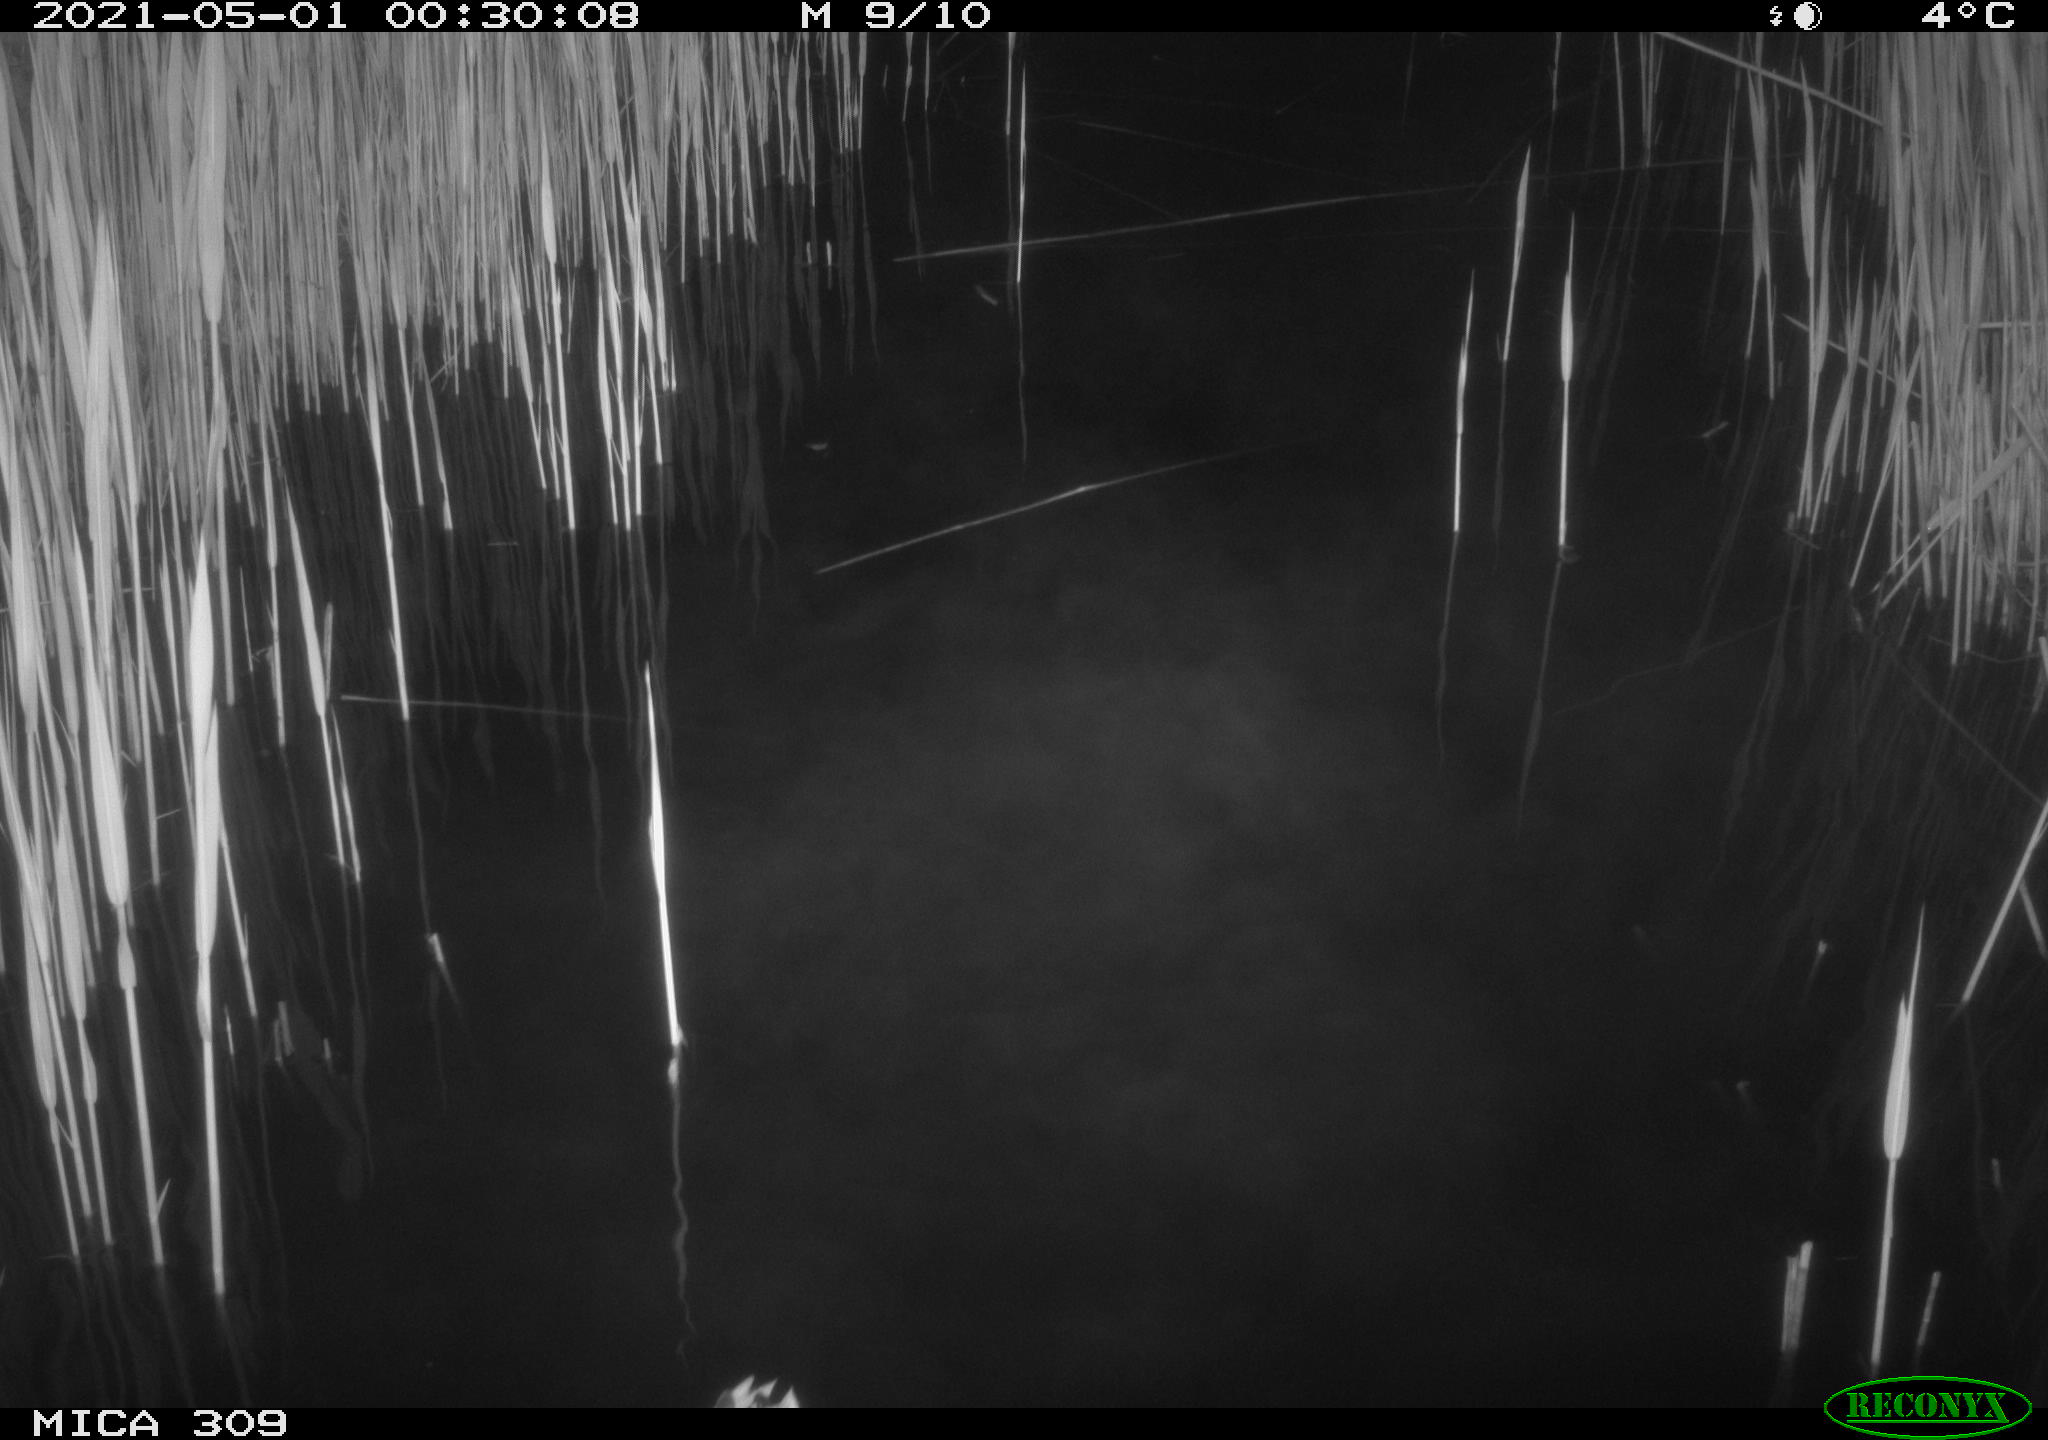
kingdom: Animalia
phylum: Chordata
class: Aves
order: Anseriformes
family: Anatidae
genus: Anas
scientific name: Anas platyrhynchos
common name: Mallard
